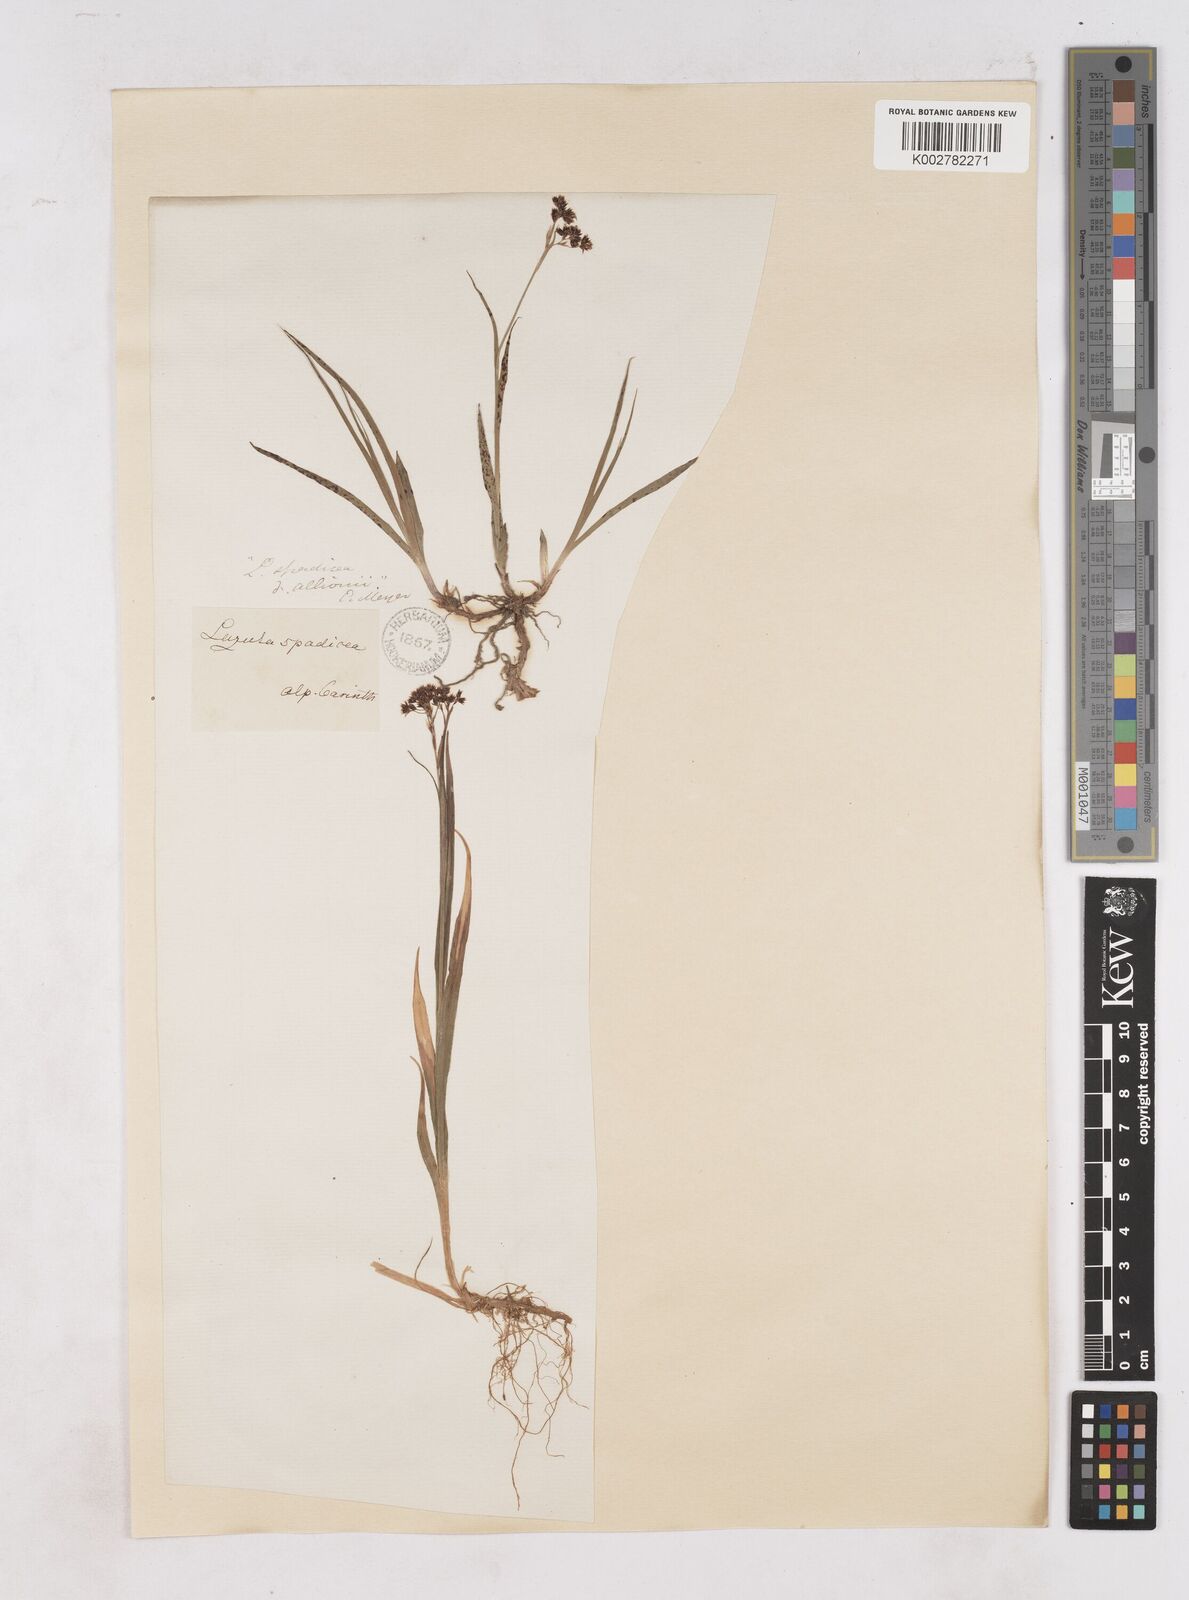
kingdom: Plantae
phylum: Tracheophyta
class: Liliopsida
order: Poales
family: Juncaceae
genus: Luzula
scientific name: Luzula alpinopilosa
